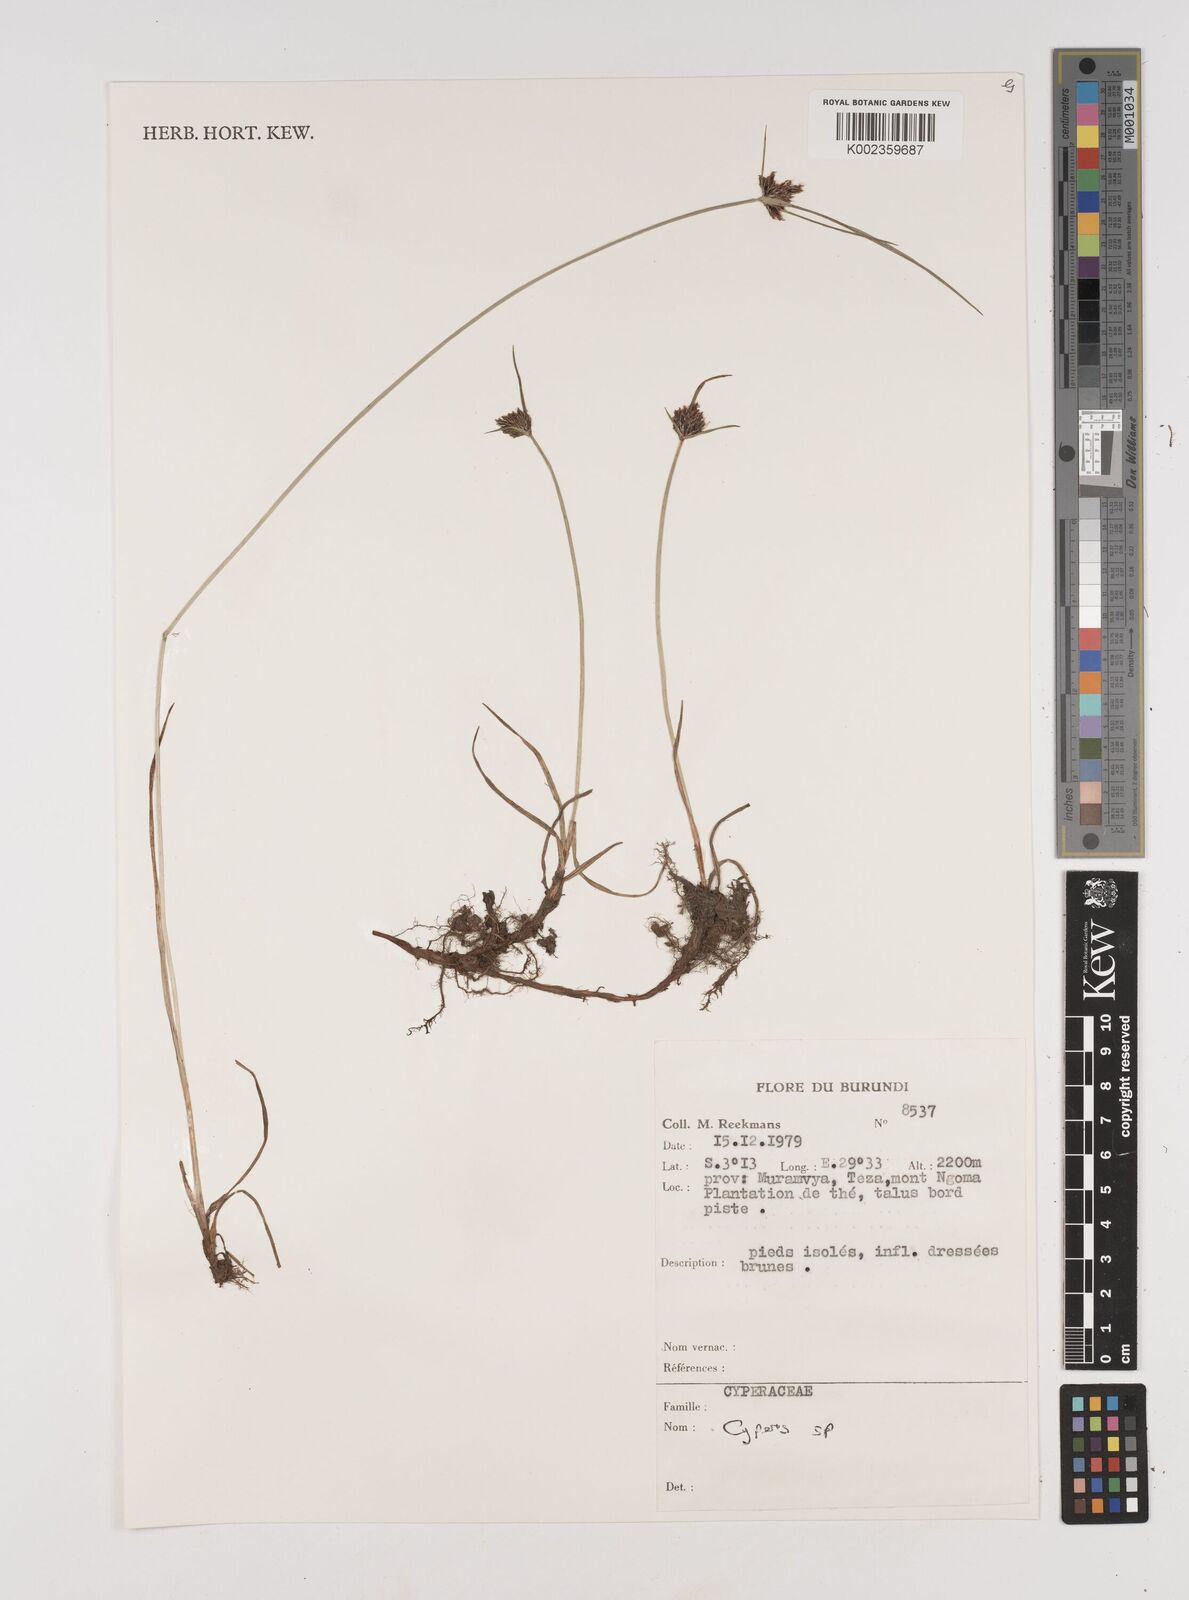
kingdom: Plantae
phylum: Tracheophyta
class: Liliopsida
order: Poales
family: Cyperaceae
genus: Cyperus
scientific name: Cyperus
